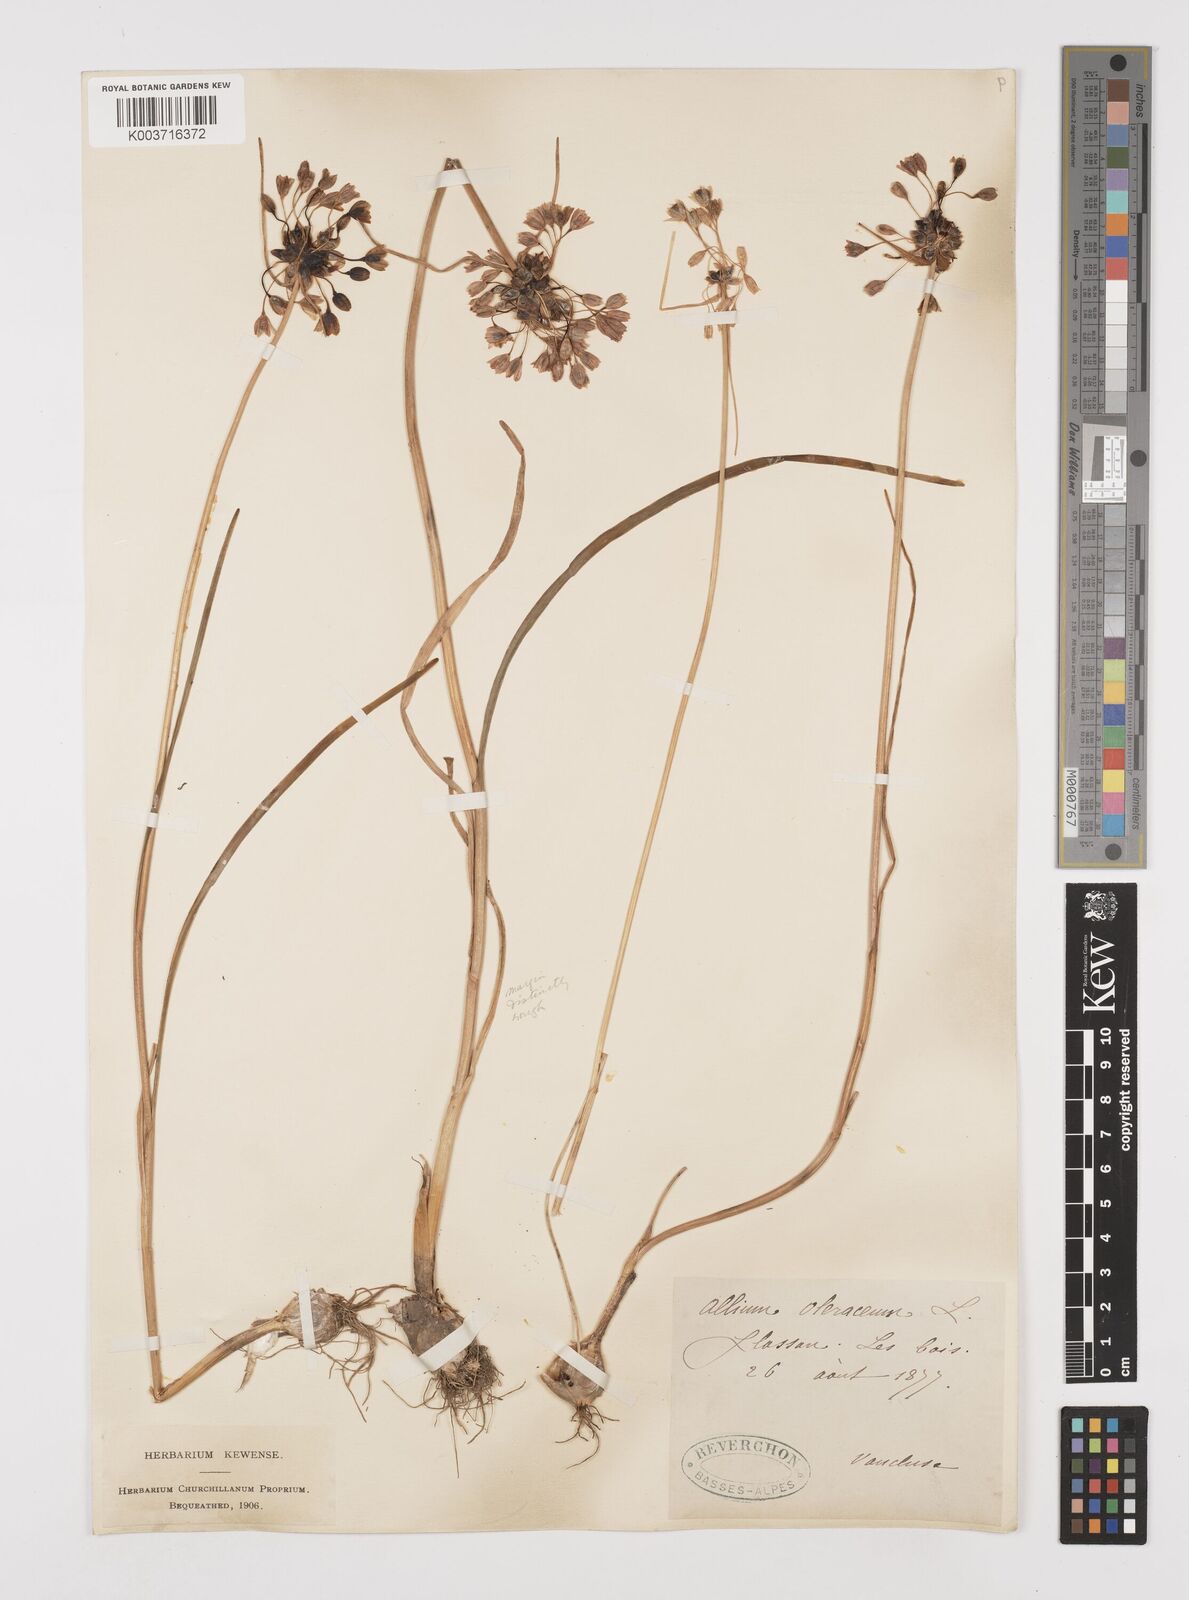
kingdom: Plantae
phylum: Tracheophyta
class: Liliopsida
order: Asparagales
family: Amaryllidaceae
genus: Allium
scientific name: Allium oleraceum
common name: Field garlic
